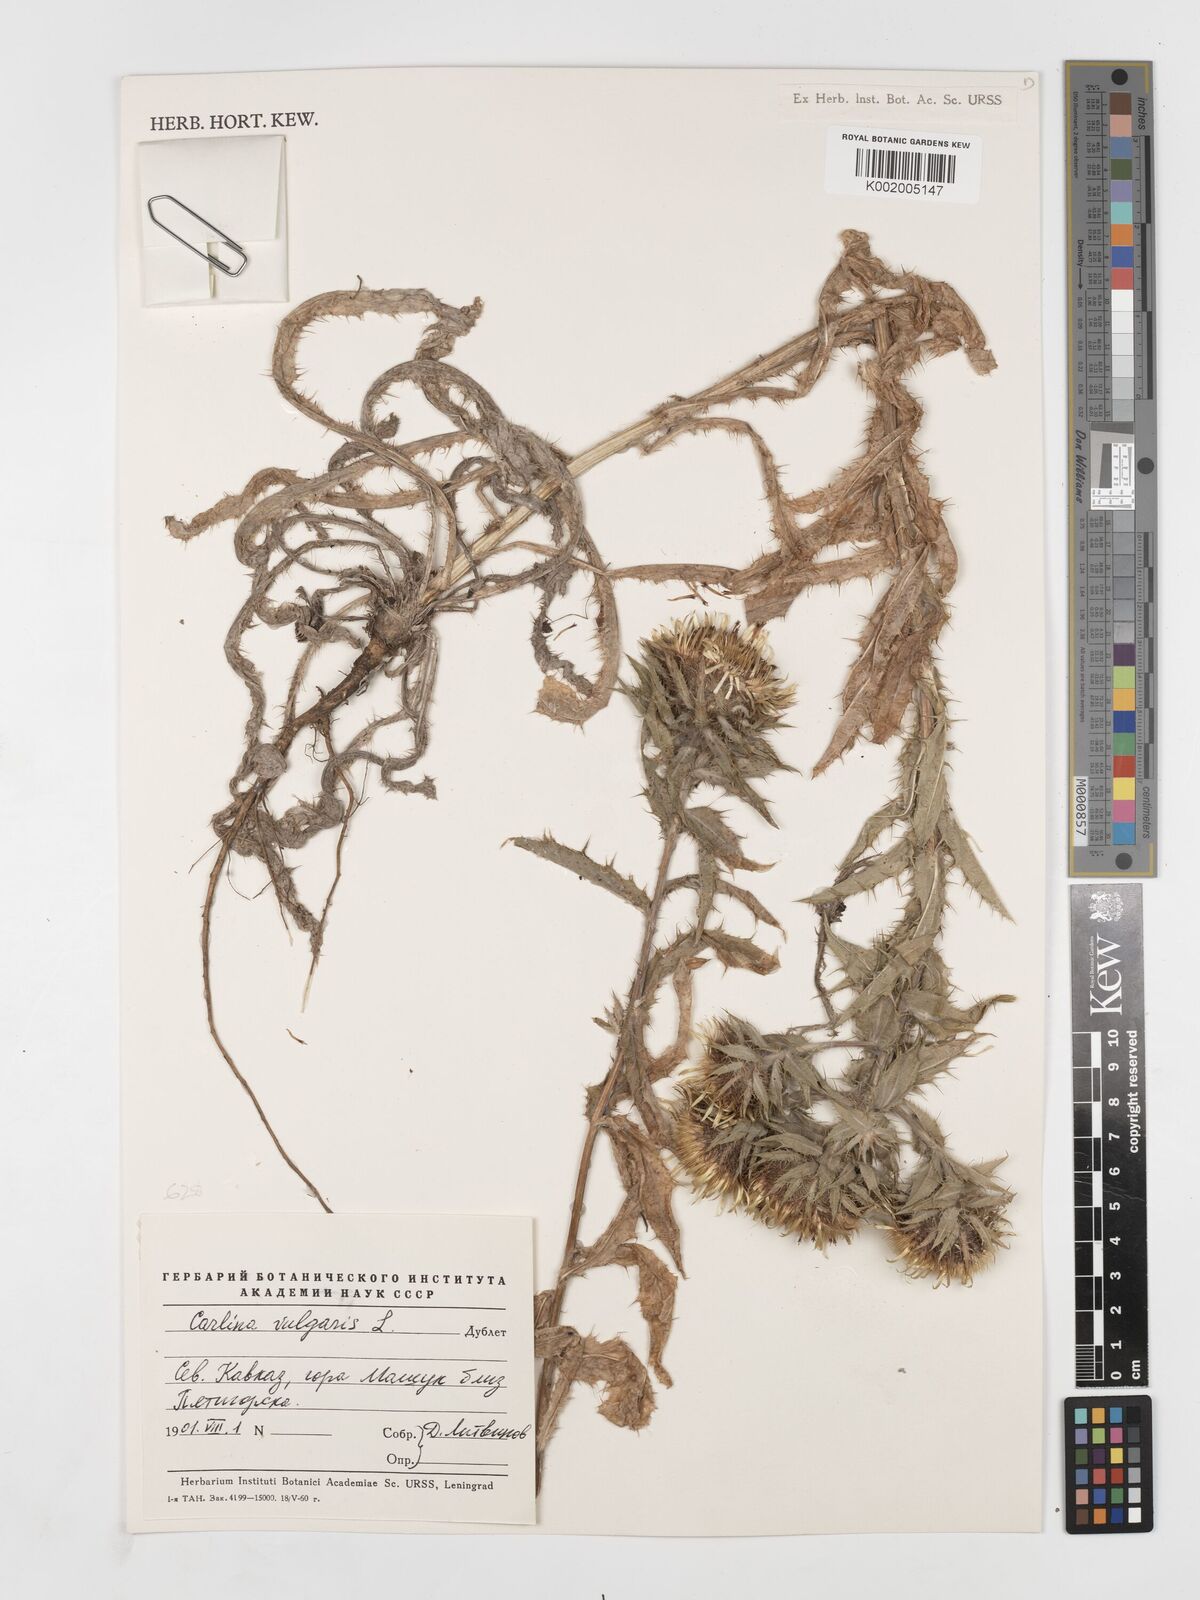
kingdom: Plantae
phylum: Tracheophyta
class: Magnoliopsida
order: Asterales
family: Asteraceae
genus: Carlina
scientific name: Carlina vulgaris
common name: Carline thistle
